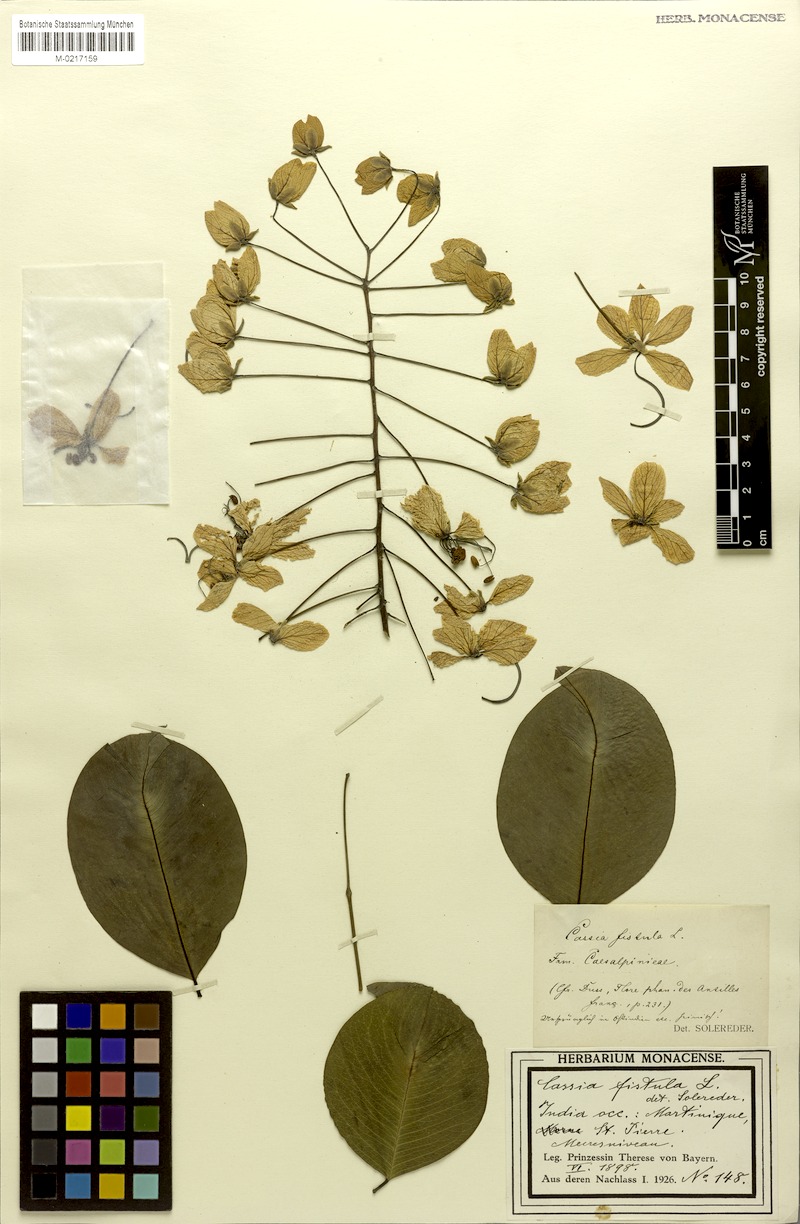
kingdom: Plantae
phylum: Tracheophyta
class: Magnoliopsida
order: Fabales
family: Fabaceae
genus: Cassia
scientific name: Cassia fistula
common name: Golden shower
